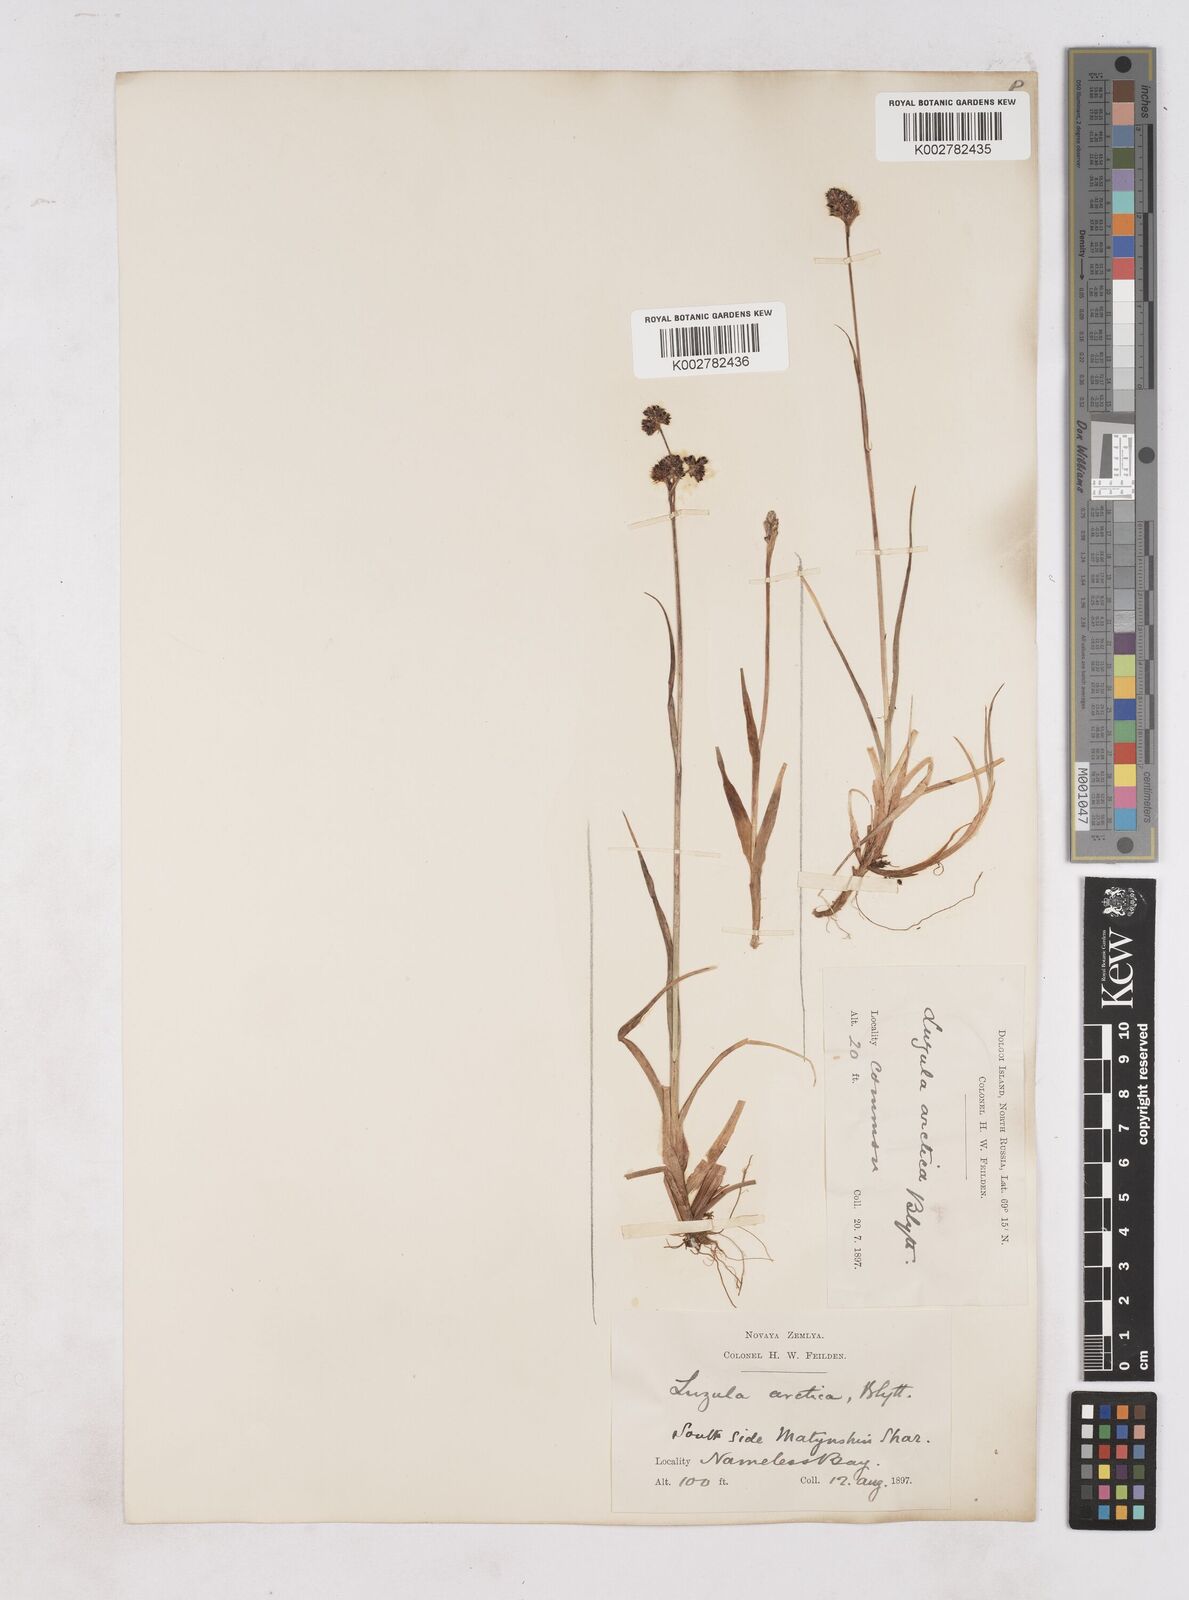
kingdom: Plantae
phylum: Tracheophyta
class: Liliopsida
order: Poales
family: Juncaceae
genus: Luzula
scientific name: Luzula nivalis
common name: Arctic woodrush
